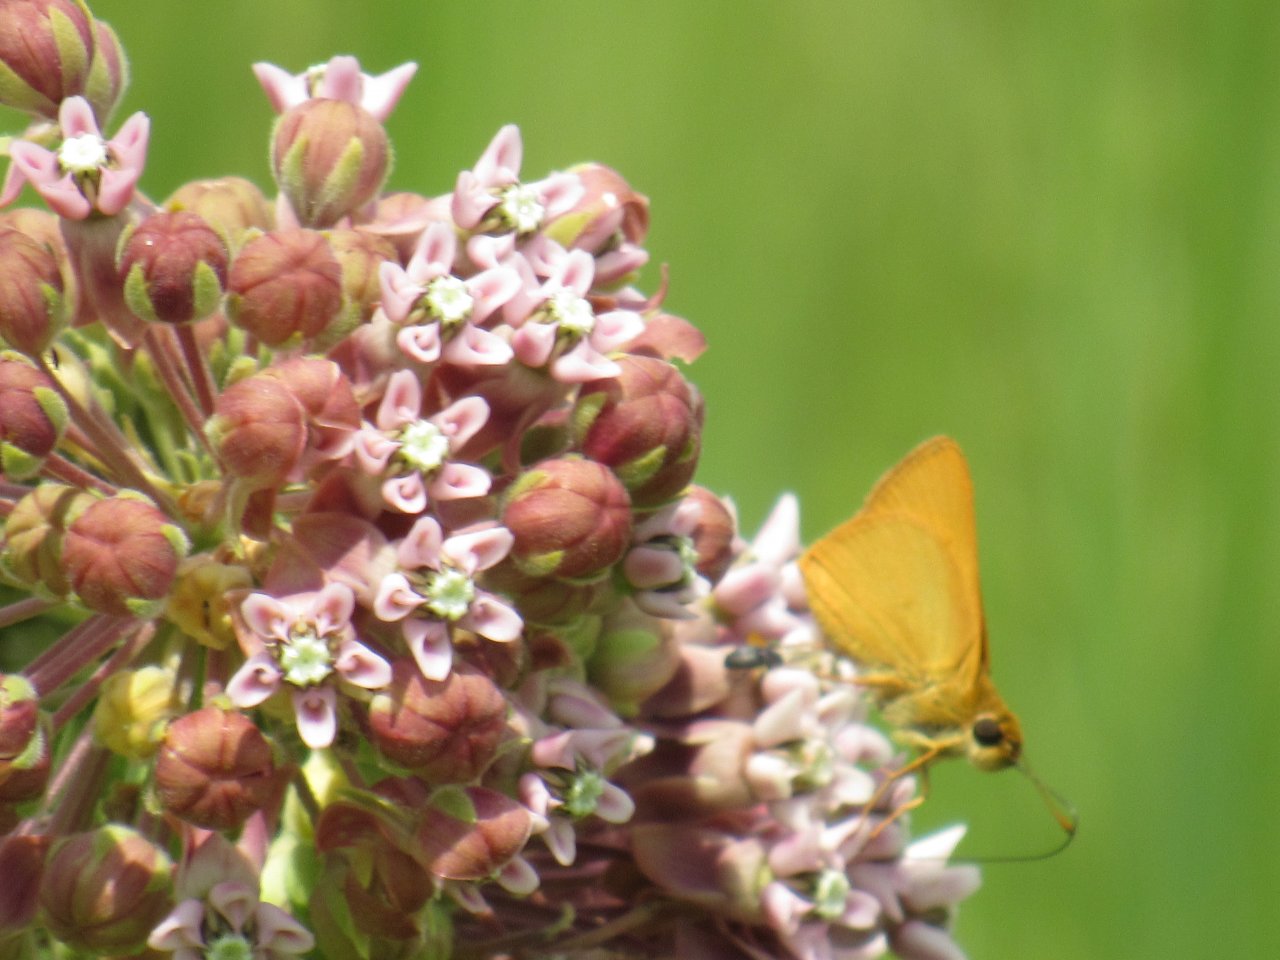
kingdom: Animalia
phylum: Arthropoda
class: Insecta
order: Lepidoptera
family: Hesperiidae
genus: Atrytone
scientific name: Atrytone delaware
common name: Delaware Skipper
